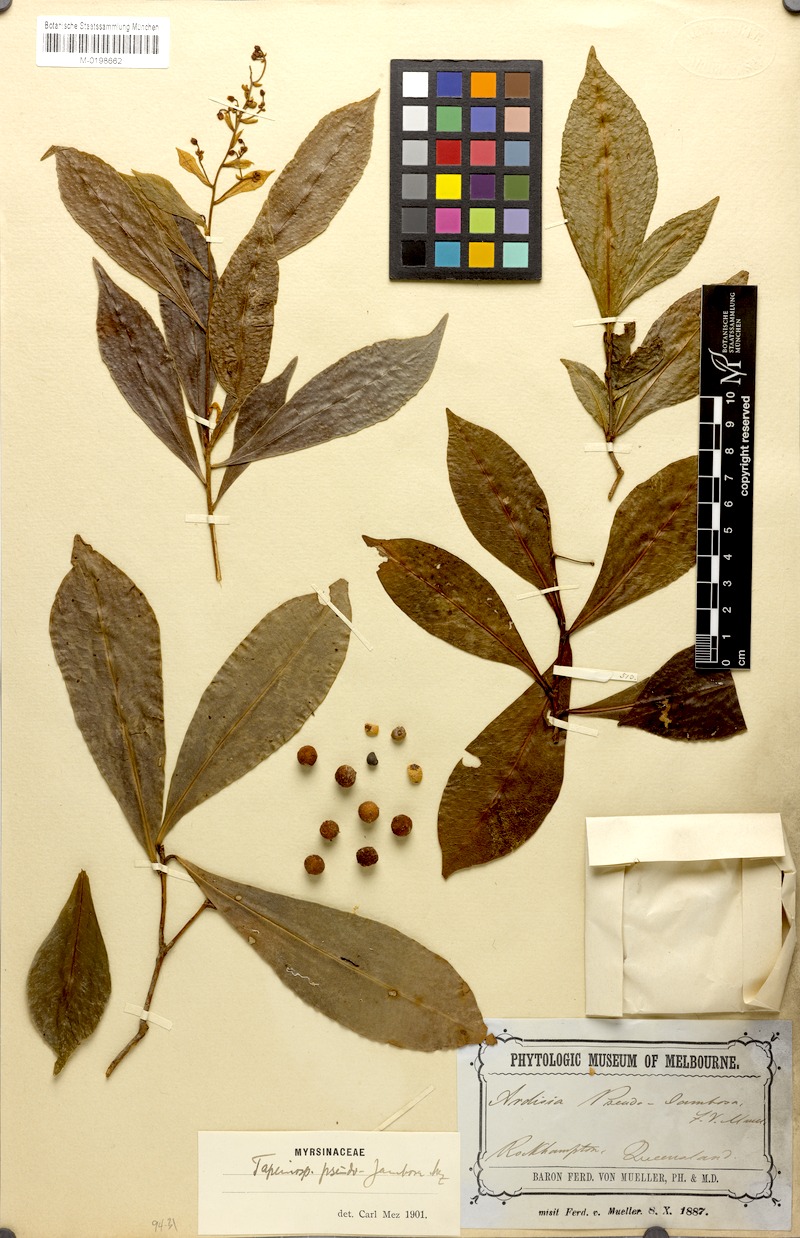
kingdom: Plantae
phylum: Tracheophyta
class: Magnoliopsida
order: Ericales
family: Primulaceae
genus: Tapeinosperma
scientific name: Tapeinosperma pseudojambosa
